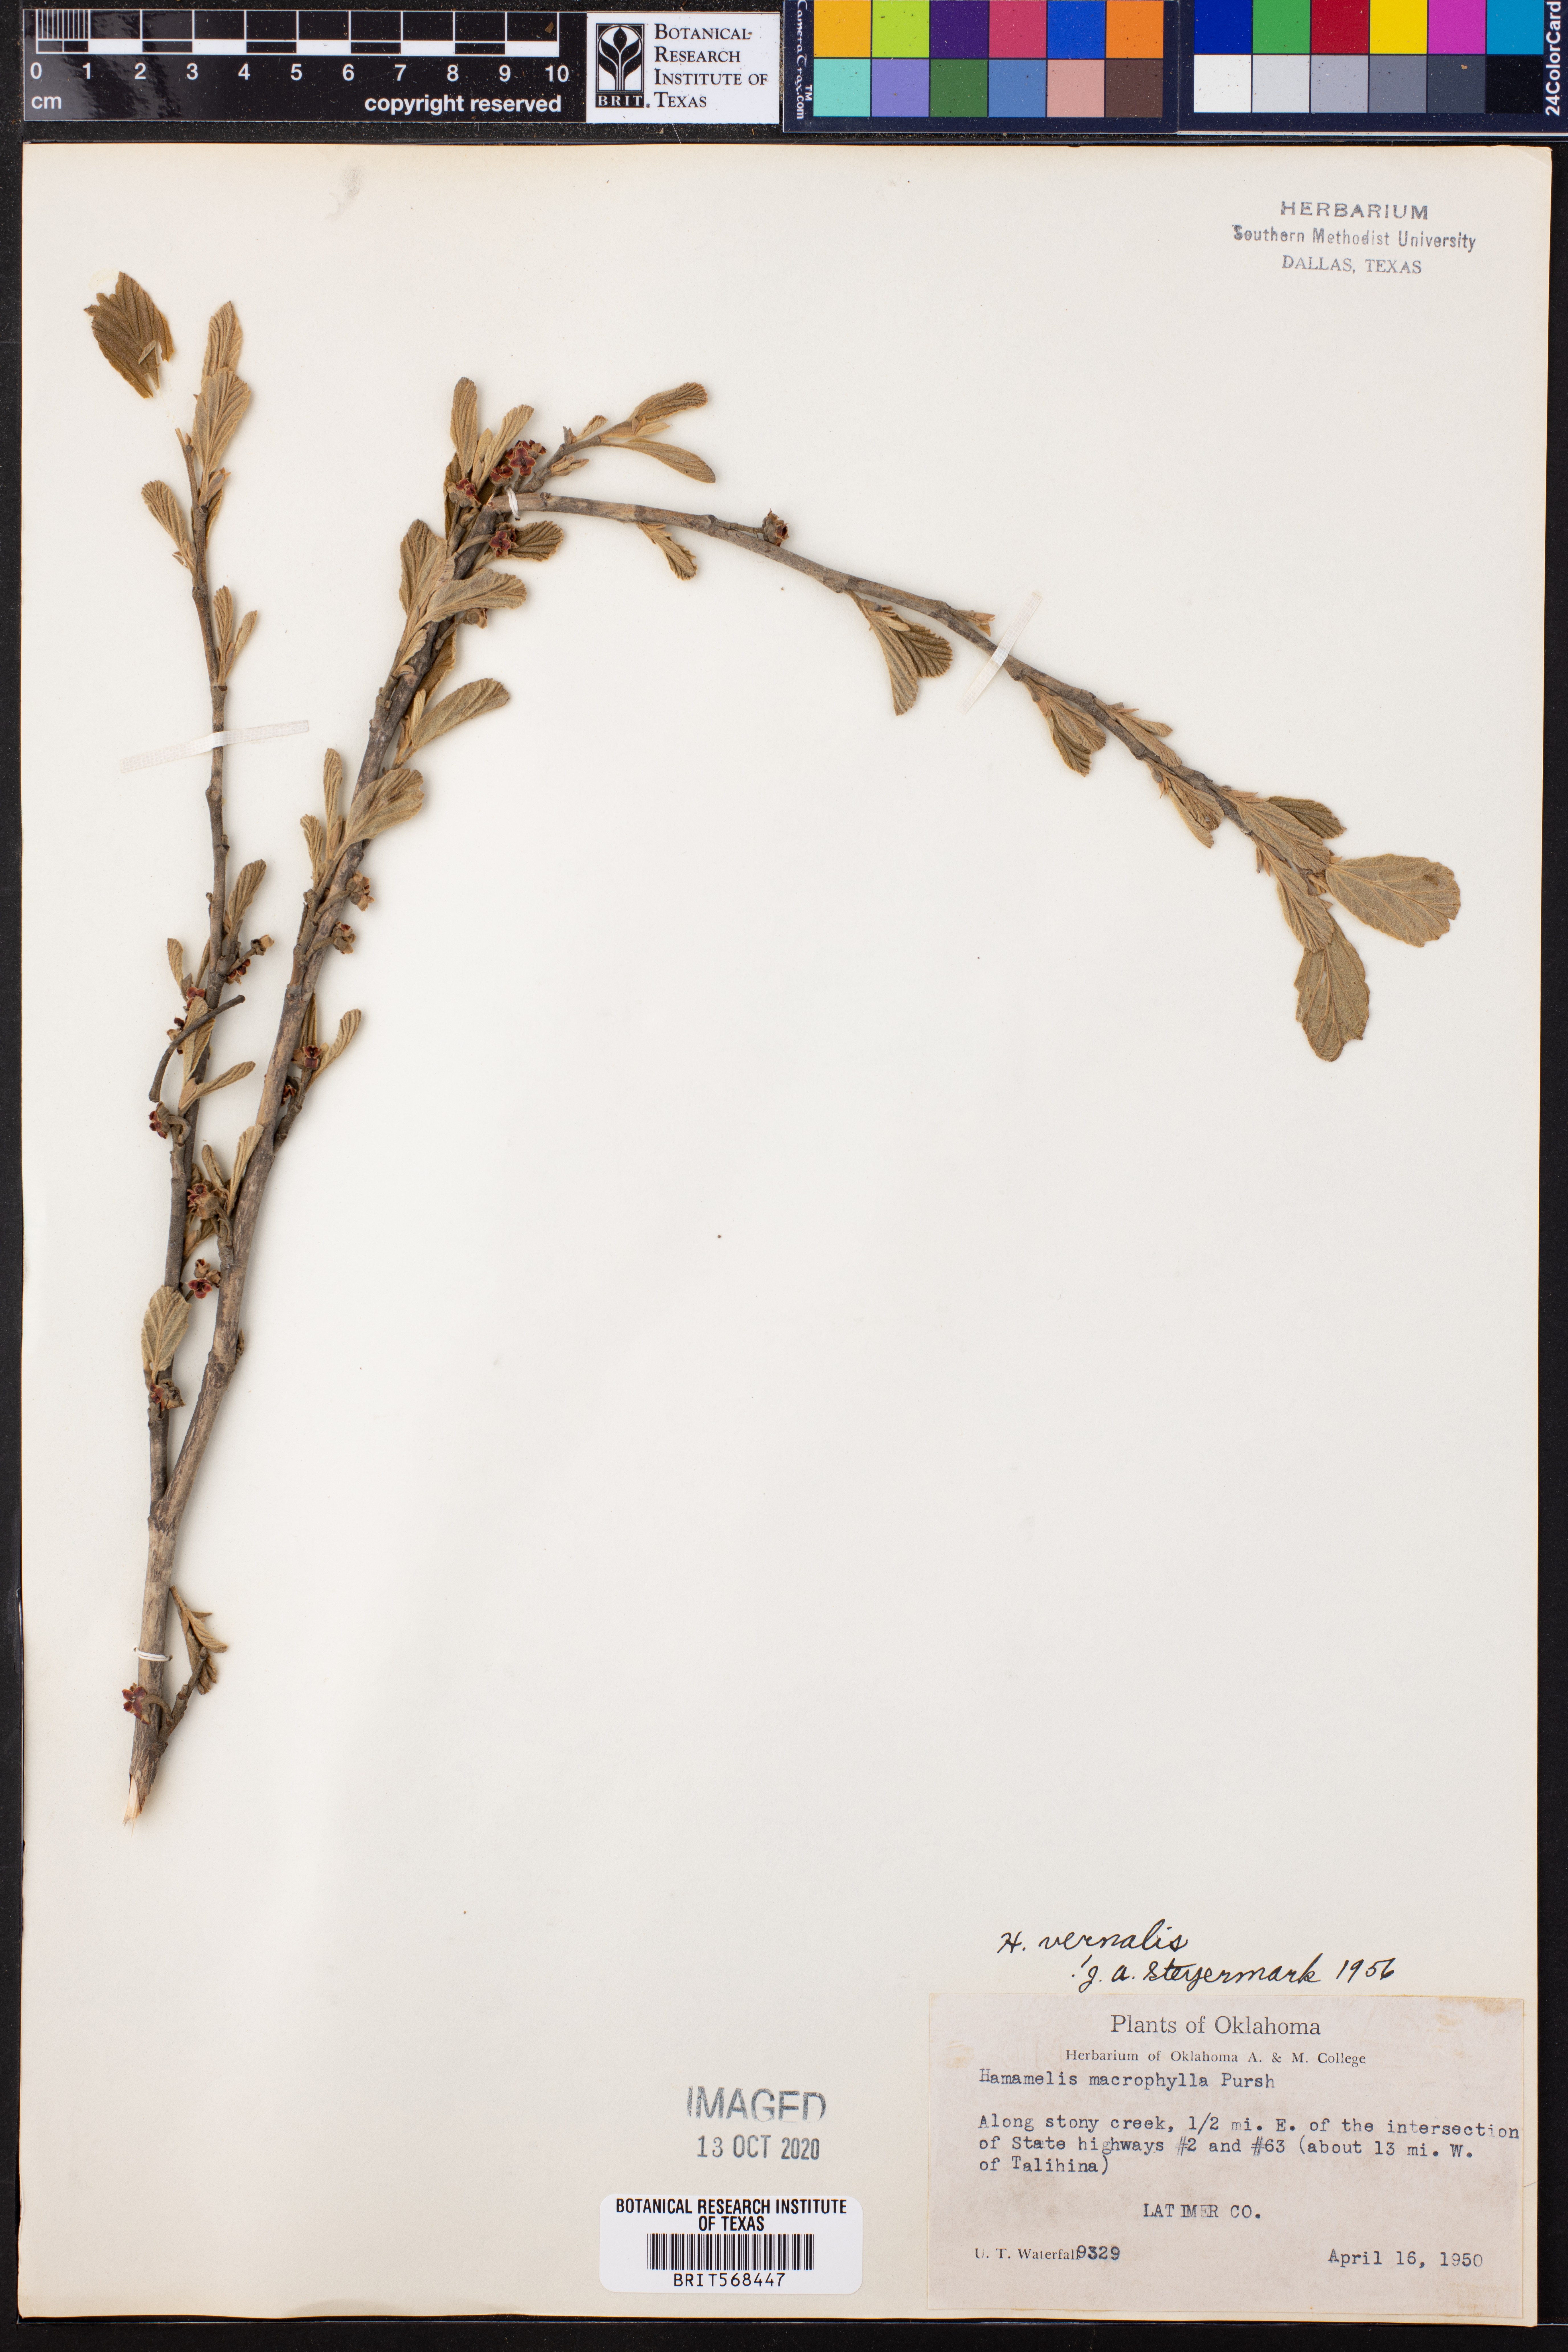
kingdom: Plantae
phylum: Tracheophyta
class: Magnoliopsida
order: Saxifragales
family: Hamamelidaceae
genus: Hamamelis
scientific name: Hamamelis vernalis
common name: Ozark witch-hazel
